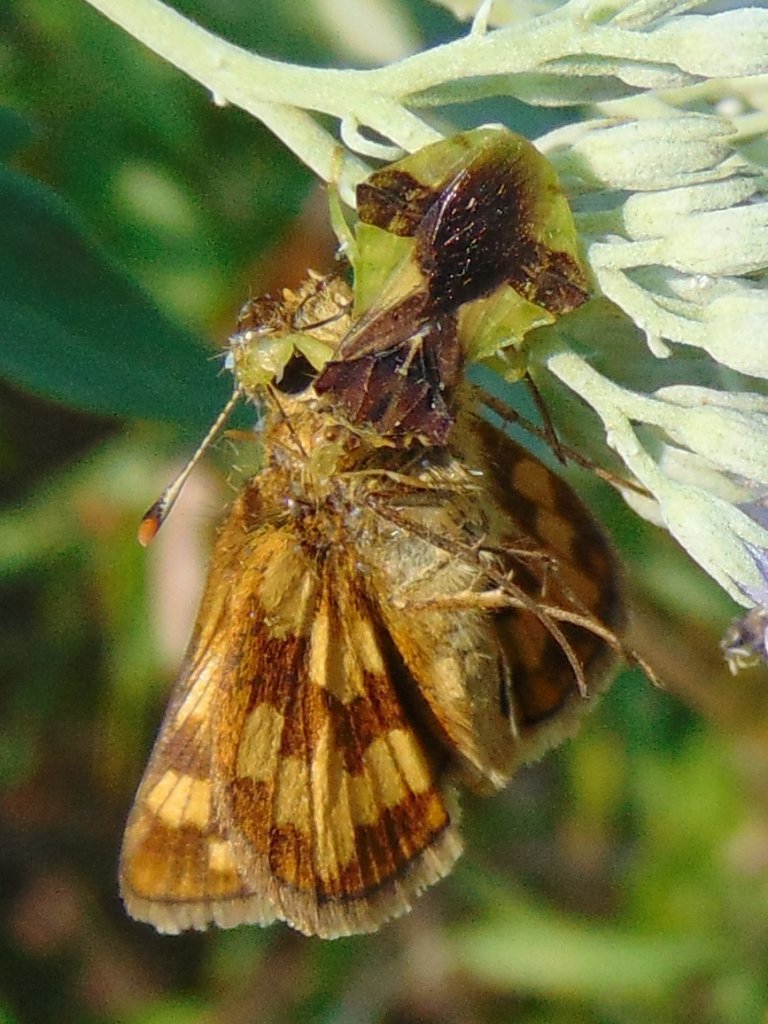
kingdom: Animalia
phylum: Arthropoda
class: Insecta
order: Lepidoptera
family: Hesperiidae
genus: Polites
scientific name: Polites coras
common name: Peck's Skipper
